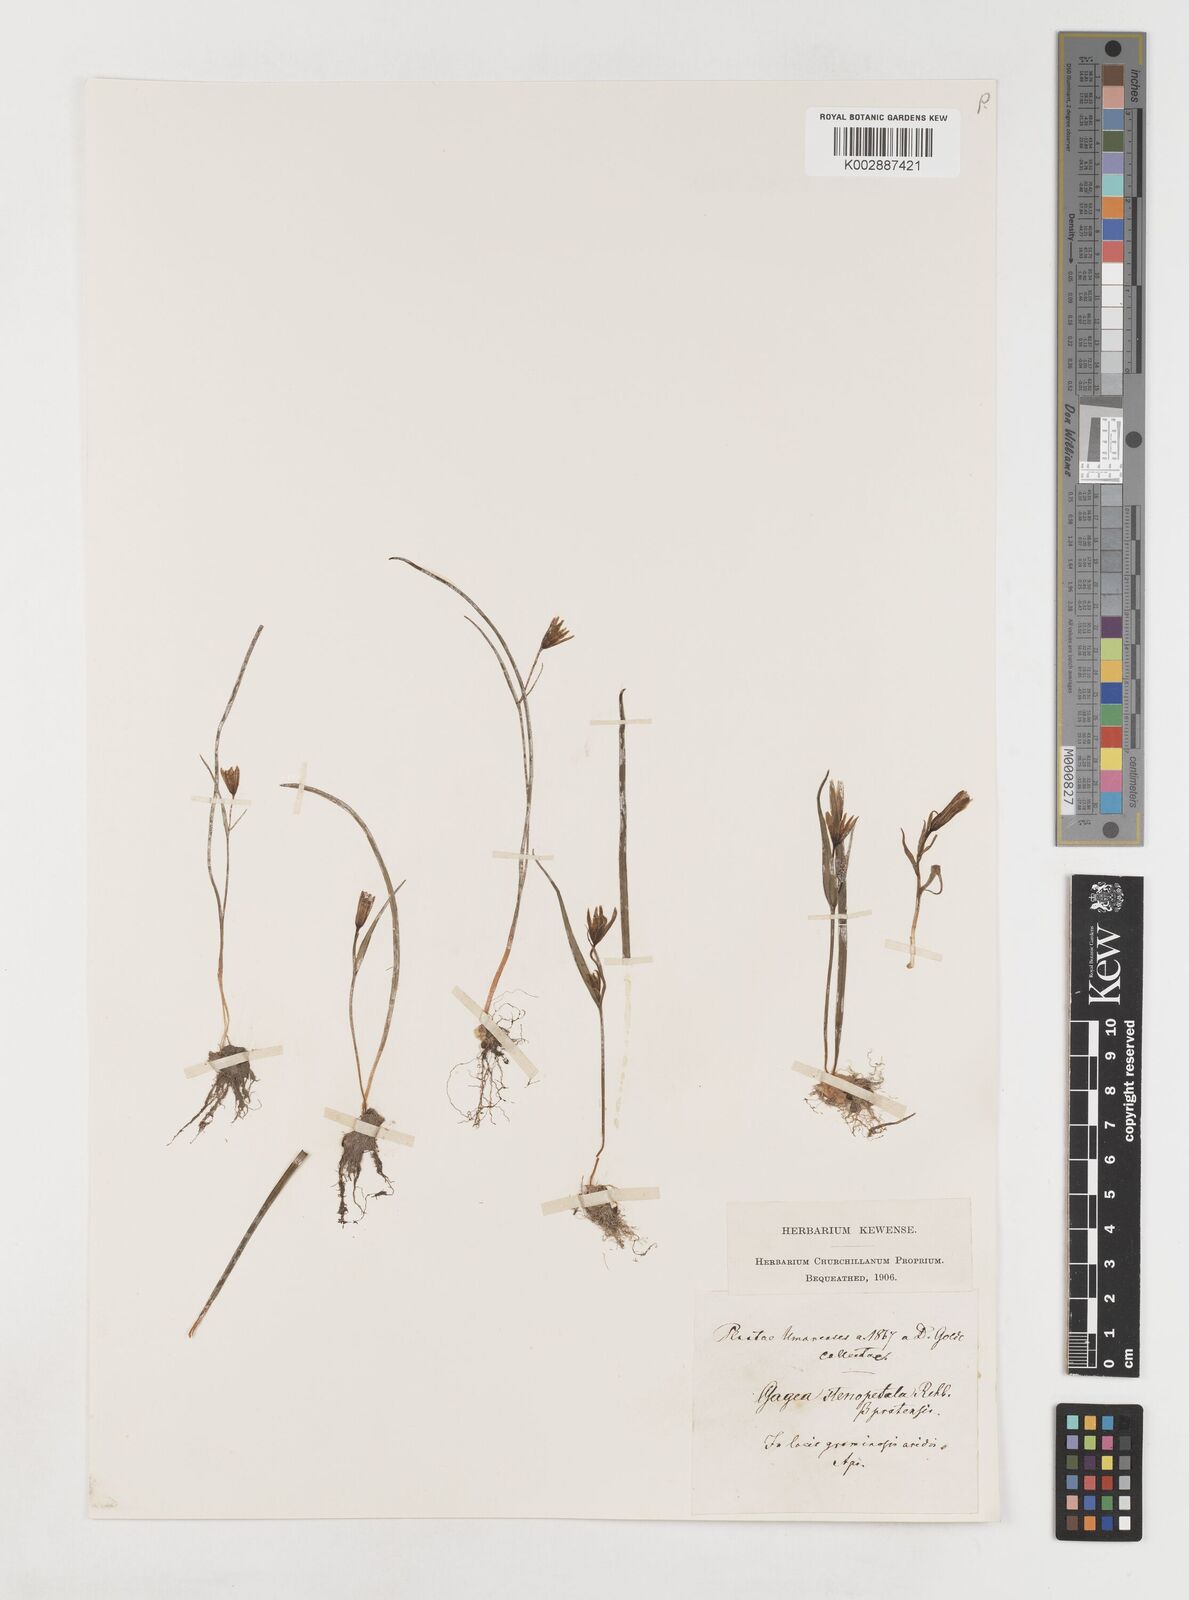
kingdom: Plantae
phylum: Tracheophyta
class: Liliopsida
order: Liliales
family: Liliaceae
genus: Gagea
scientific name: Gagea pratensis
